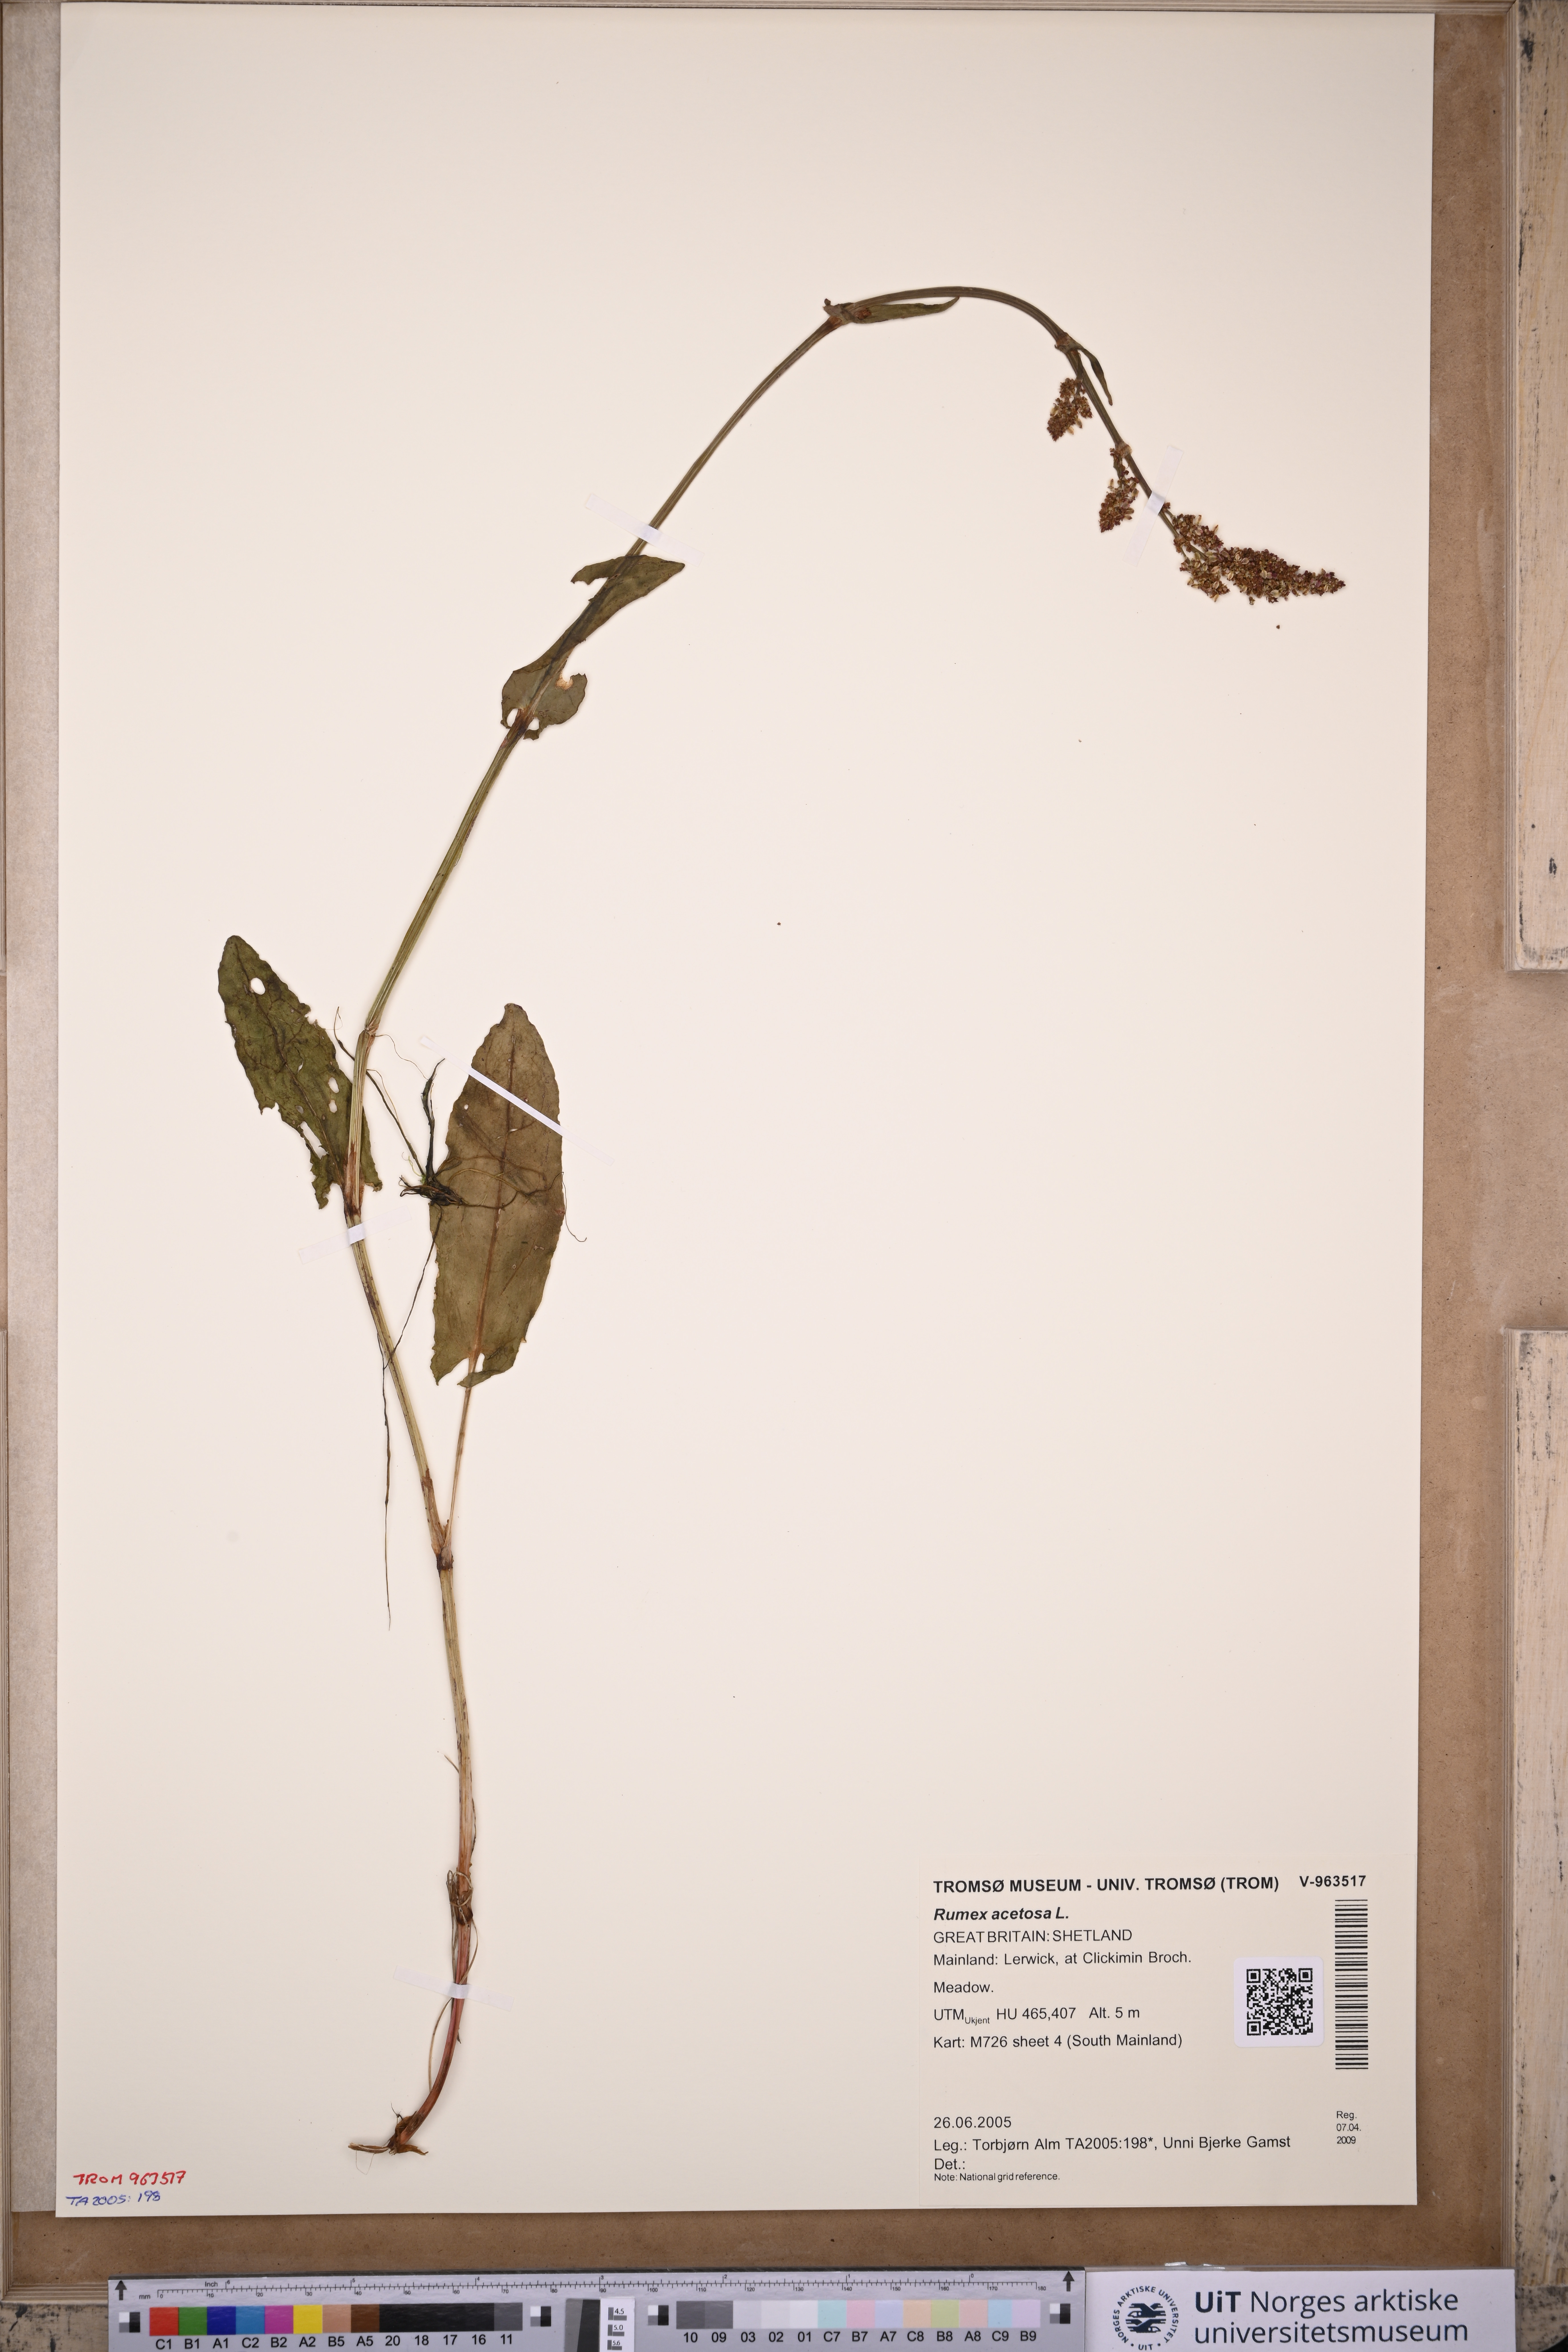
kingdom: Plantae
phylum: Tracheophyta
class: Magnoliopsida
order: Caryophyllales
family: Polygonaceae
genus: Rumex
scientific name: Rumex acetosa
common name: Garden sorrel
